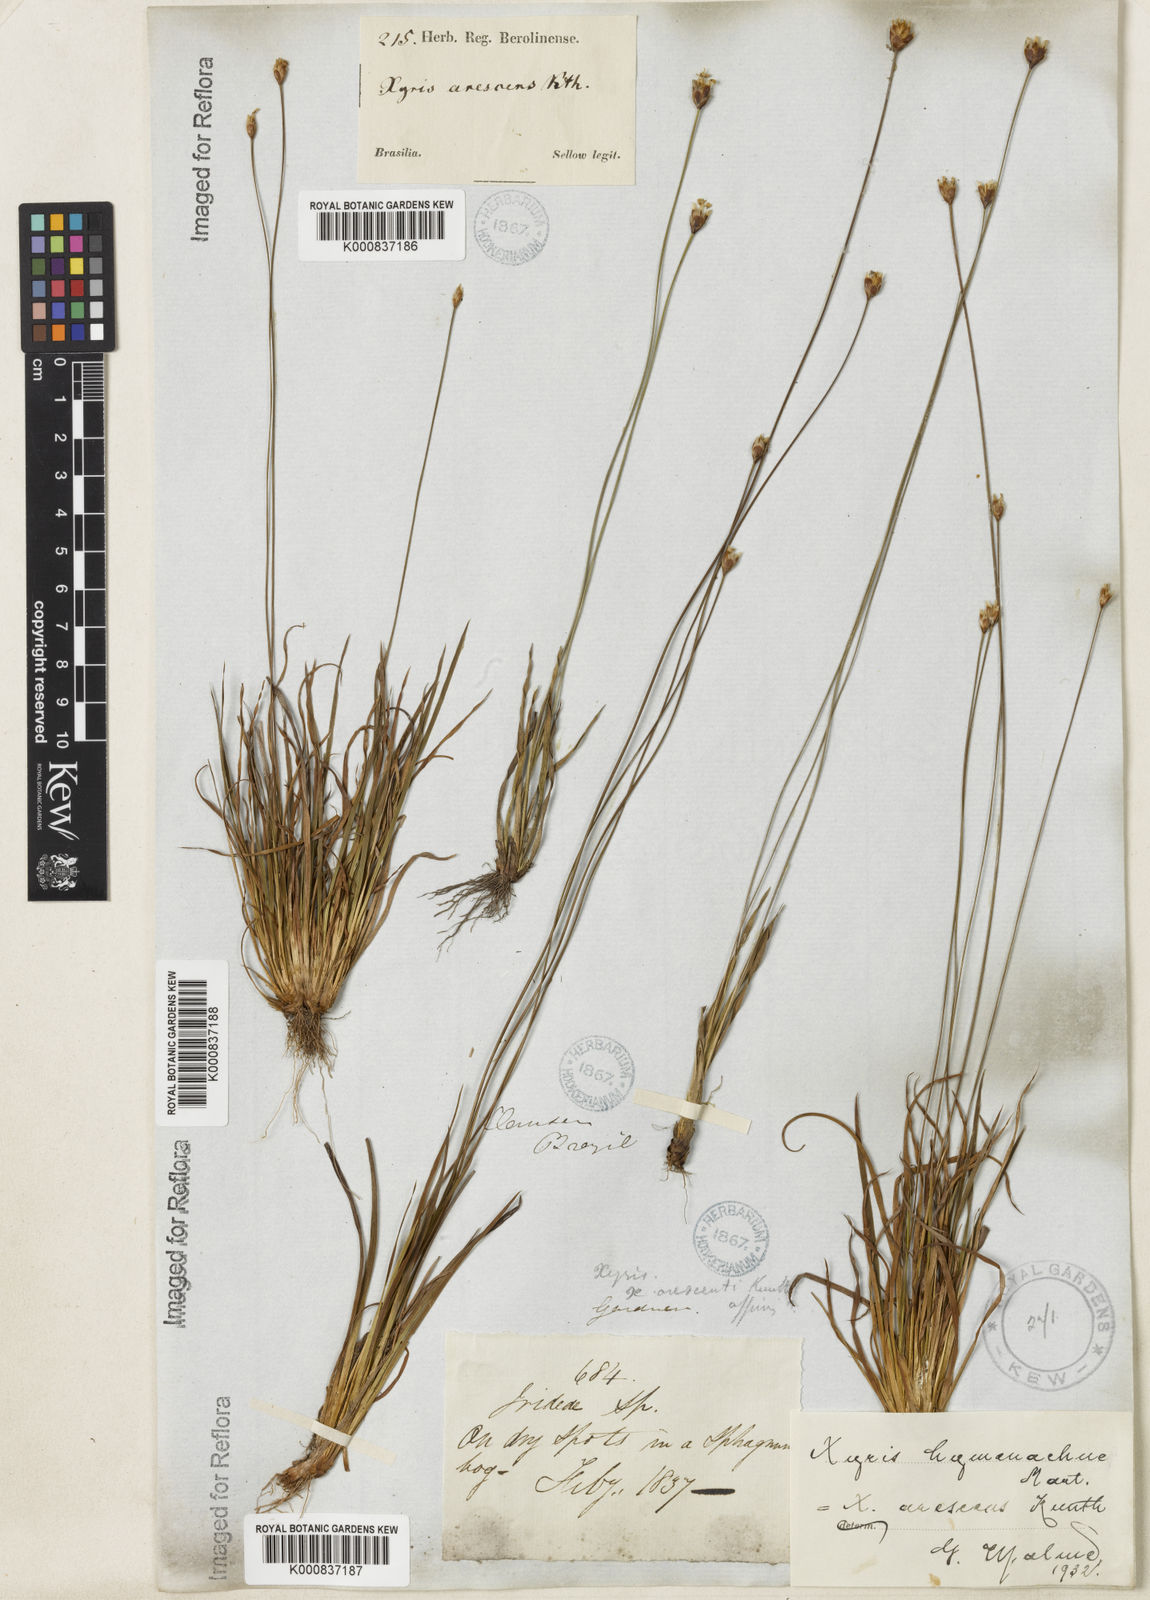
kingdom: Plantae
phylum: Tracheophyta
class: Liliopsida
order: Poales
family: Xyridaceae
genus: Xyris
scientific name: Xyris hymenachne
